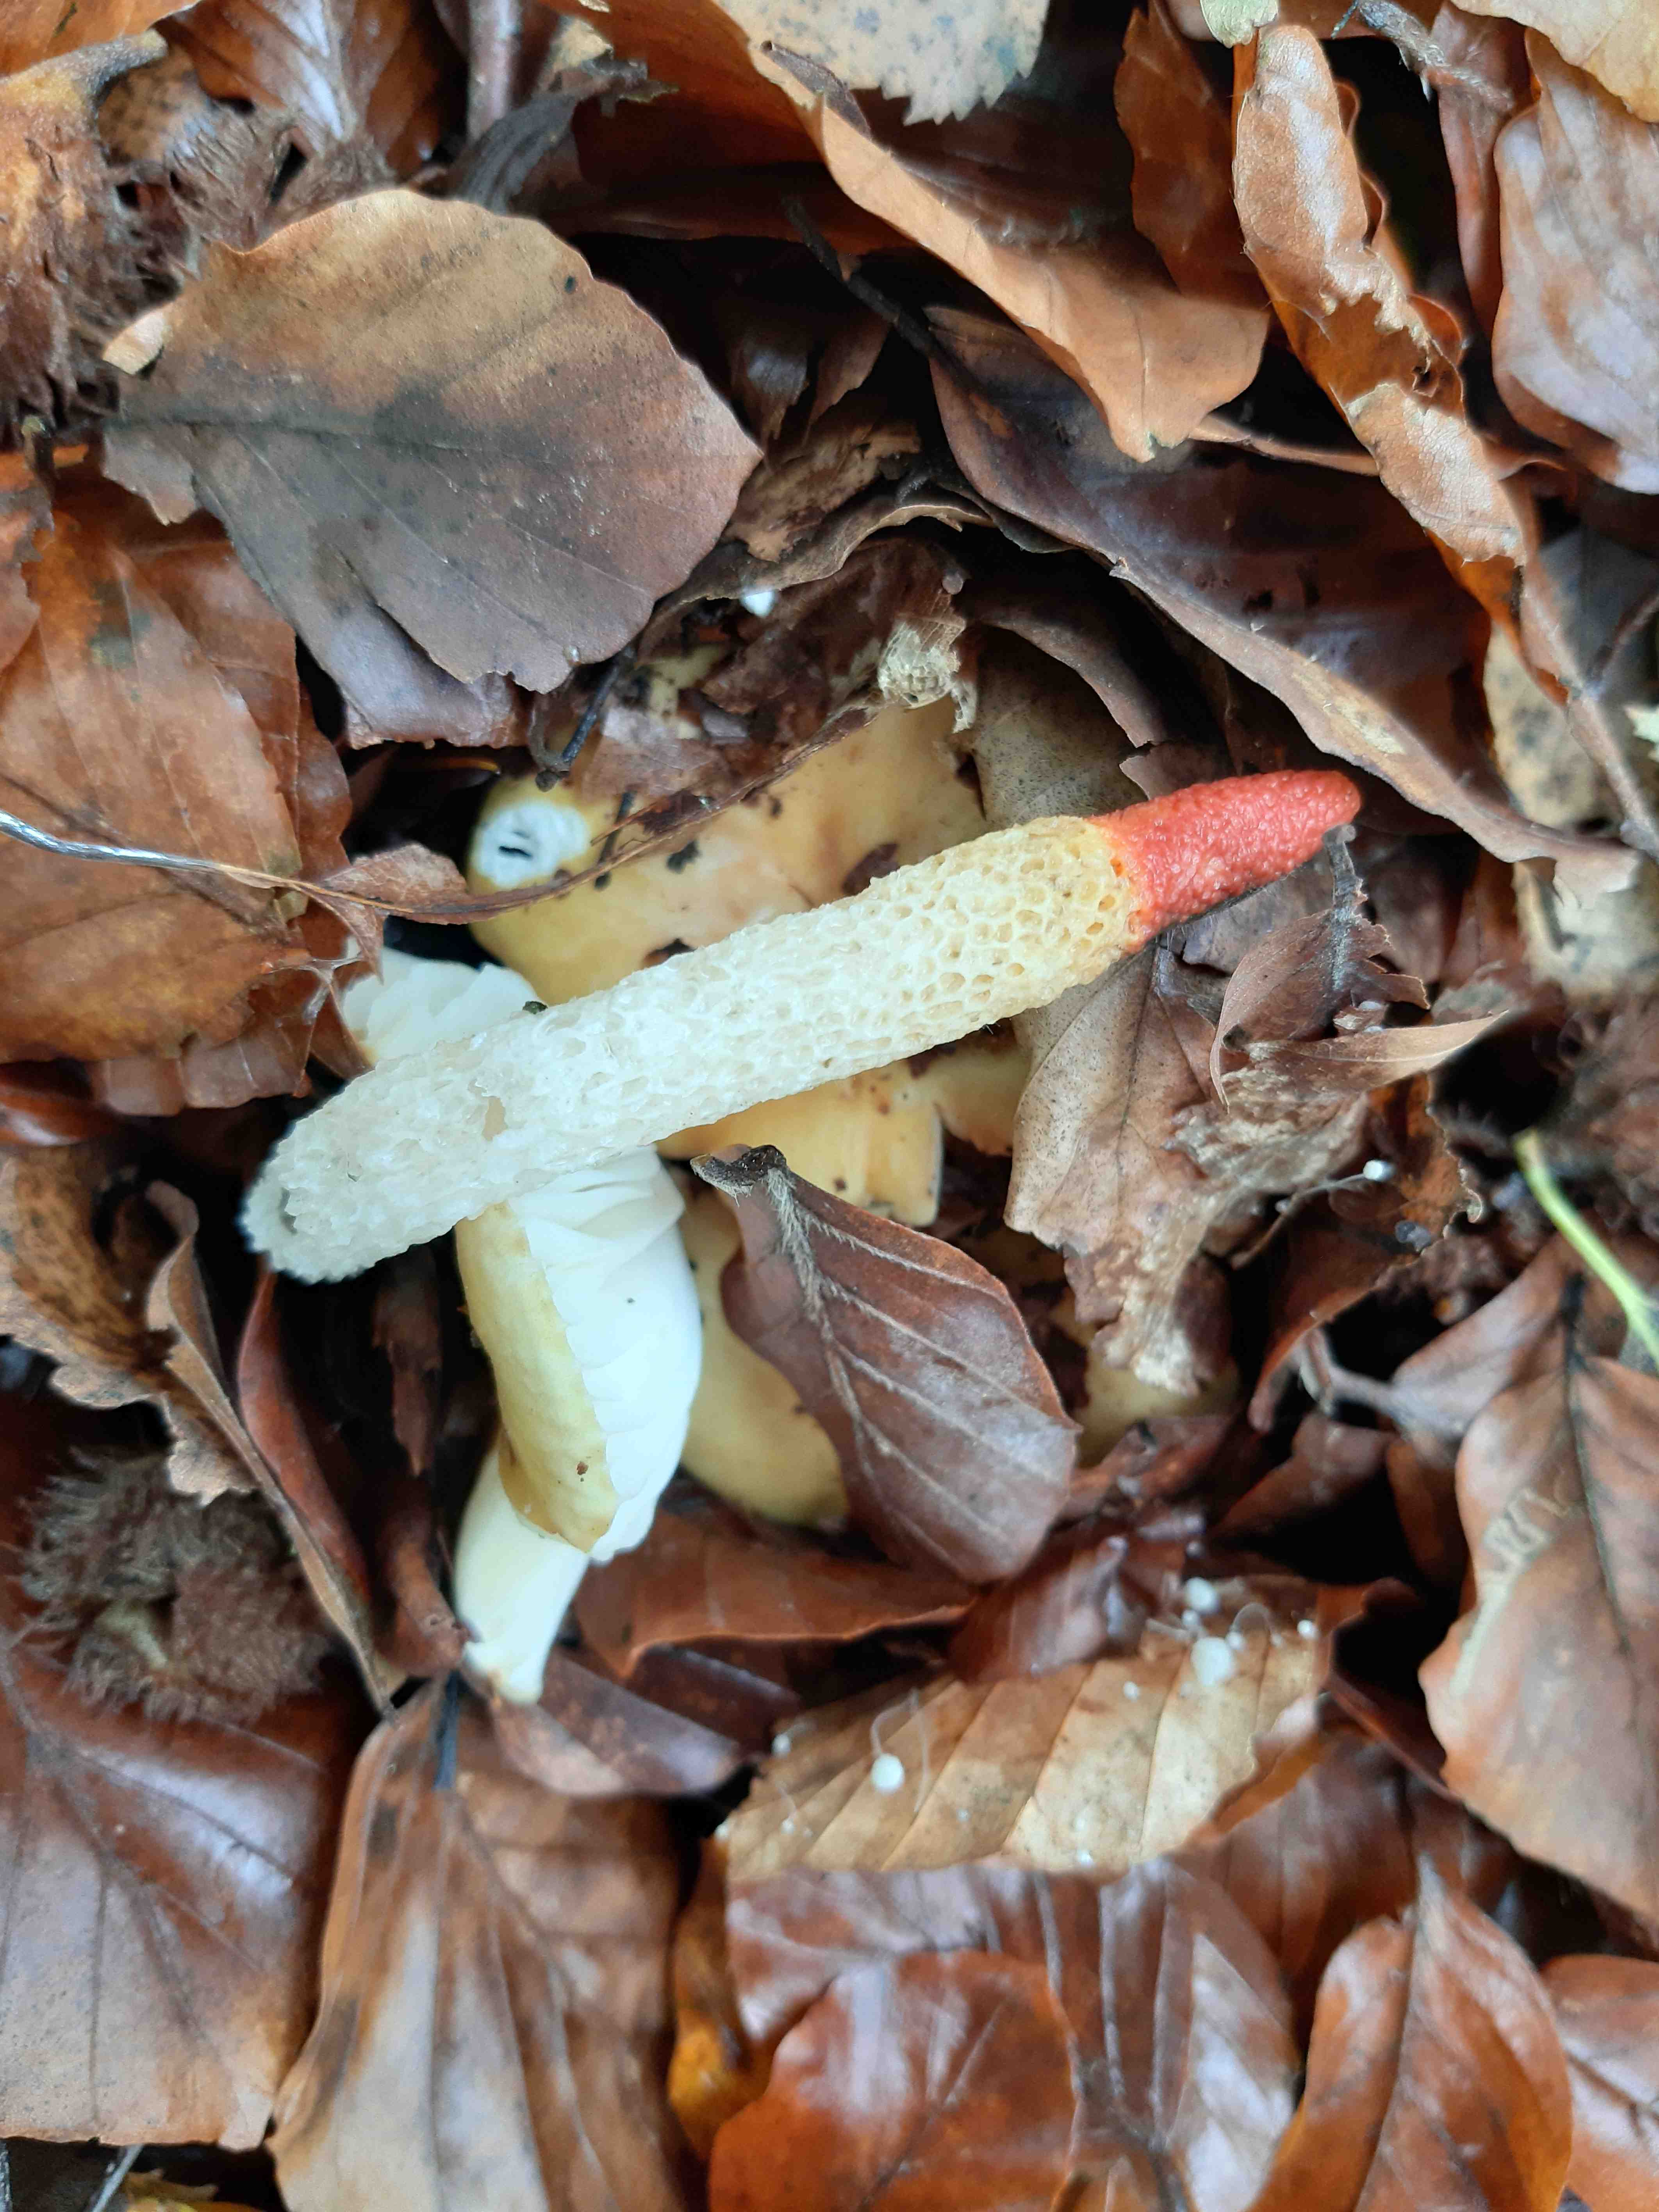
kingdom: Fungi
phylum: Basidiomycota
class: Agaricomycetes
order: Phallales
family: Phallaceae
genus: Mutinus
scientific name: Mutinus caninus
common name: hunde-stinksvamp
